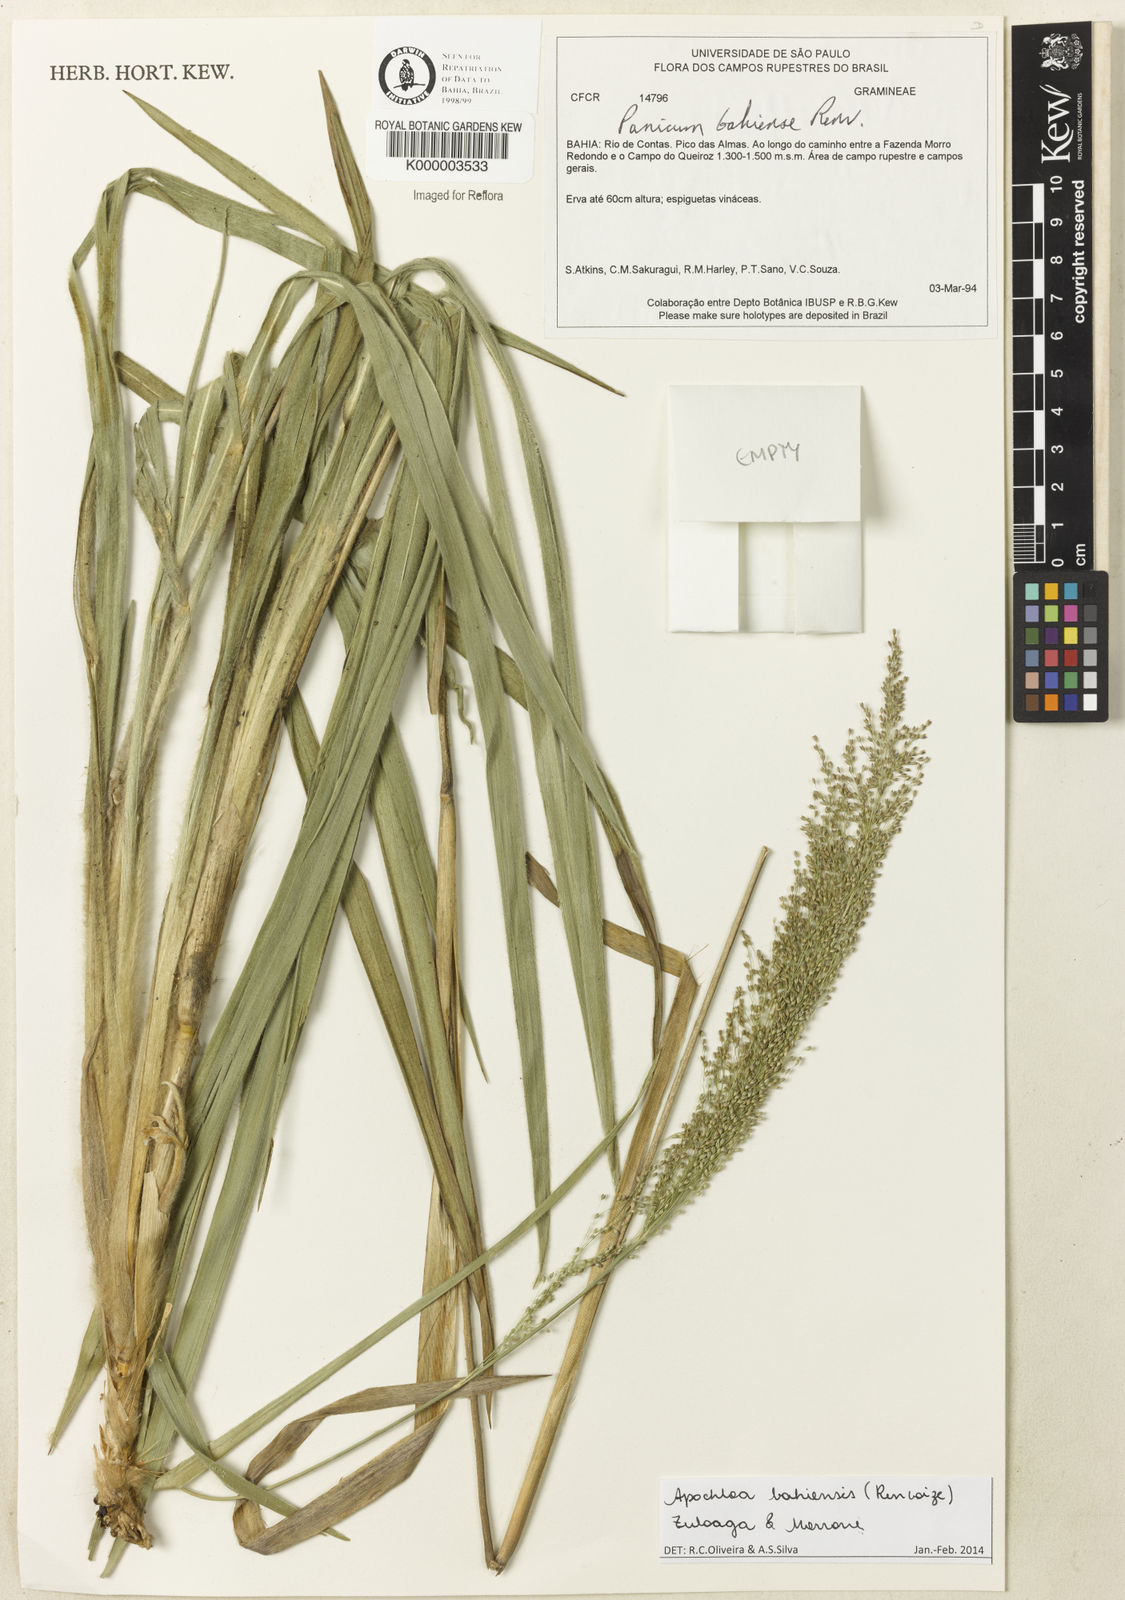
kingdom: Plantae
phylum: Tracheophyta
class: Liliopsida
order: Poales
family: Poaceae
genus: Apochloa
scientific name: Apochloa bahiensis
